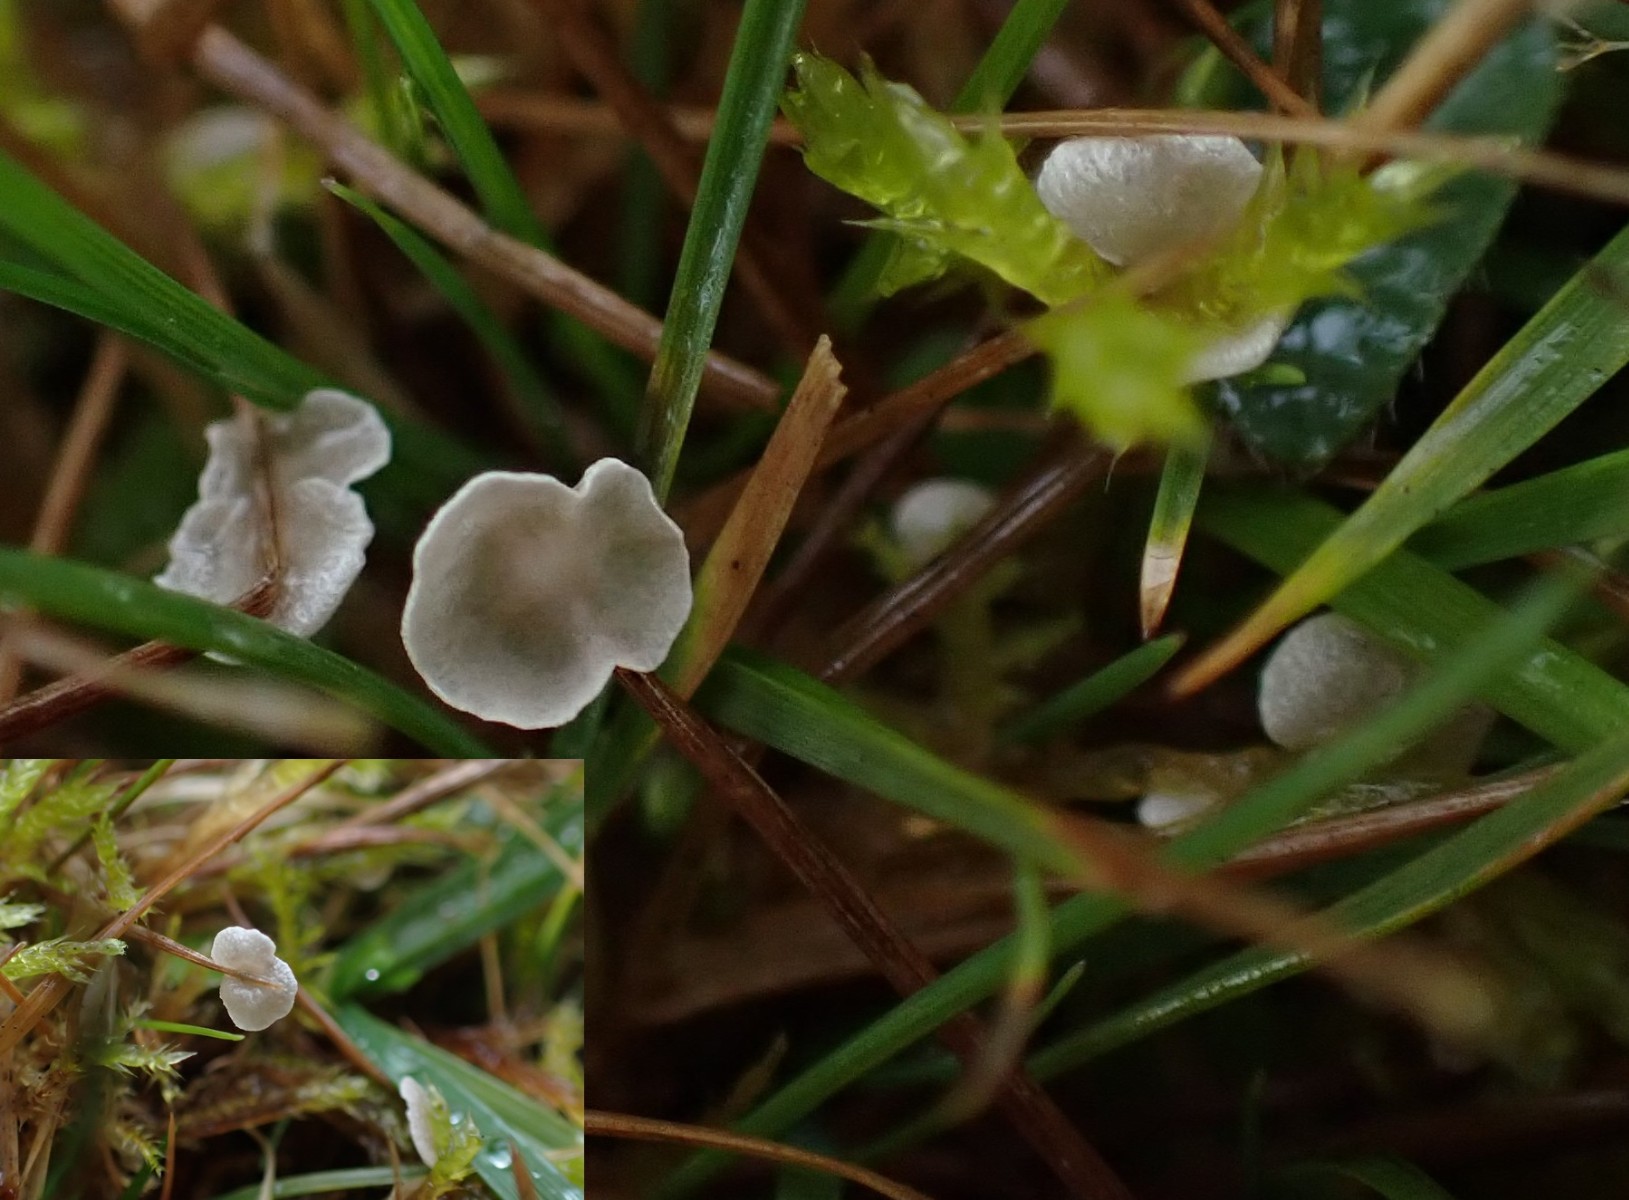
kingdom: Fungi
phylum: Basidiomycota
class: Agaricomycetes
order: Agaricales
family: Hygrophoraceae
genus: Arrhenia
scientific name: Arrhenia retiruga
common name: lille fontænehat
